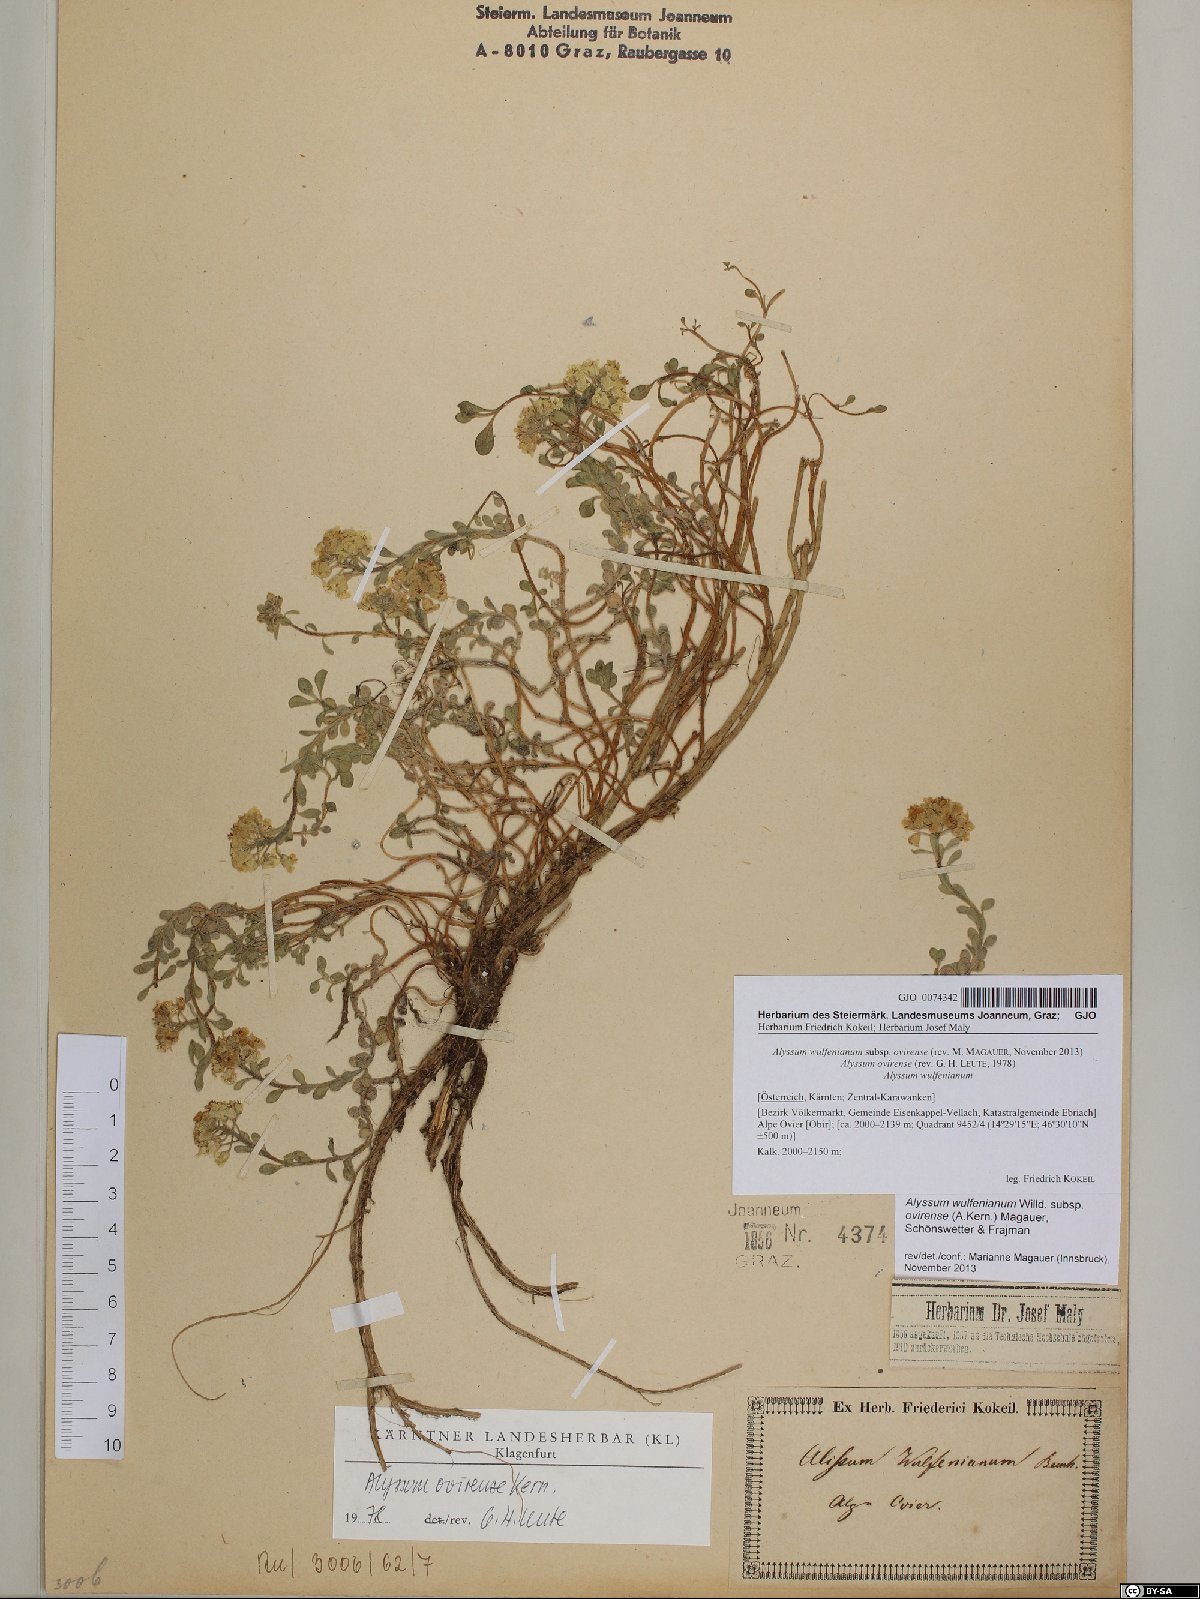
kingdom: Plantae
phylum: Tracheophyta
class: Magnoliopsida
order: Brassicales
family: Brassicaceae
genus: Alyssum
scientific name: Alyssum wulfenianum
